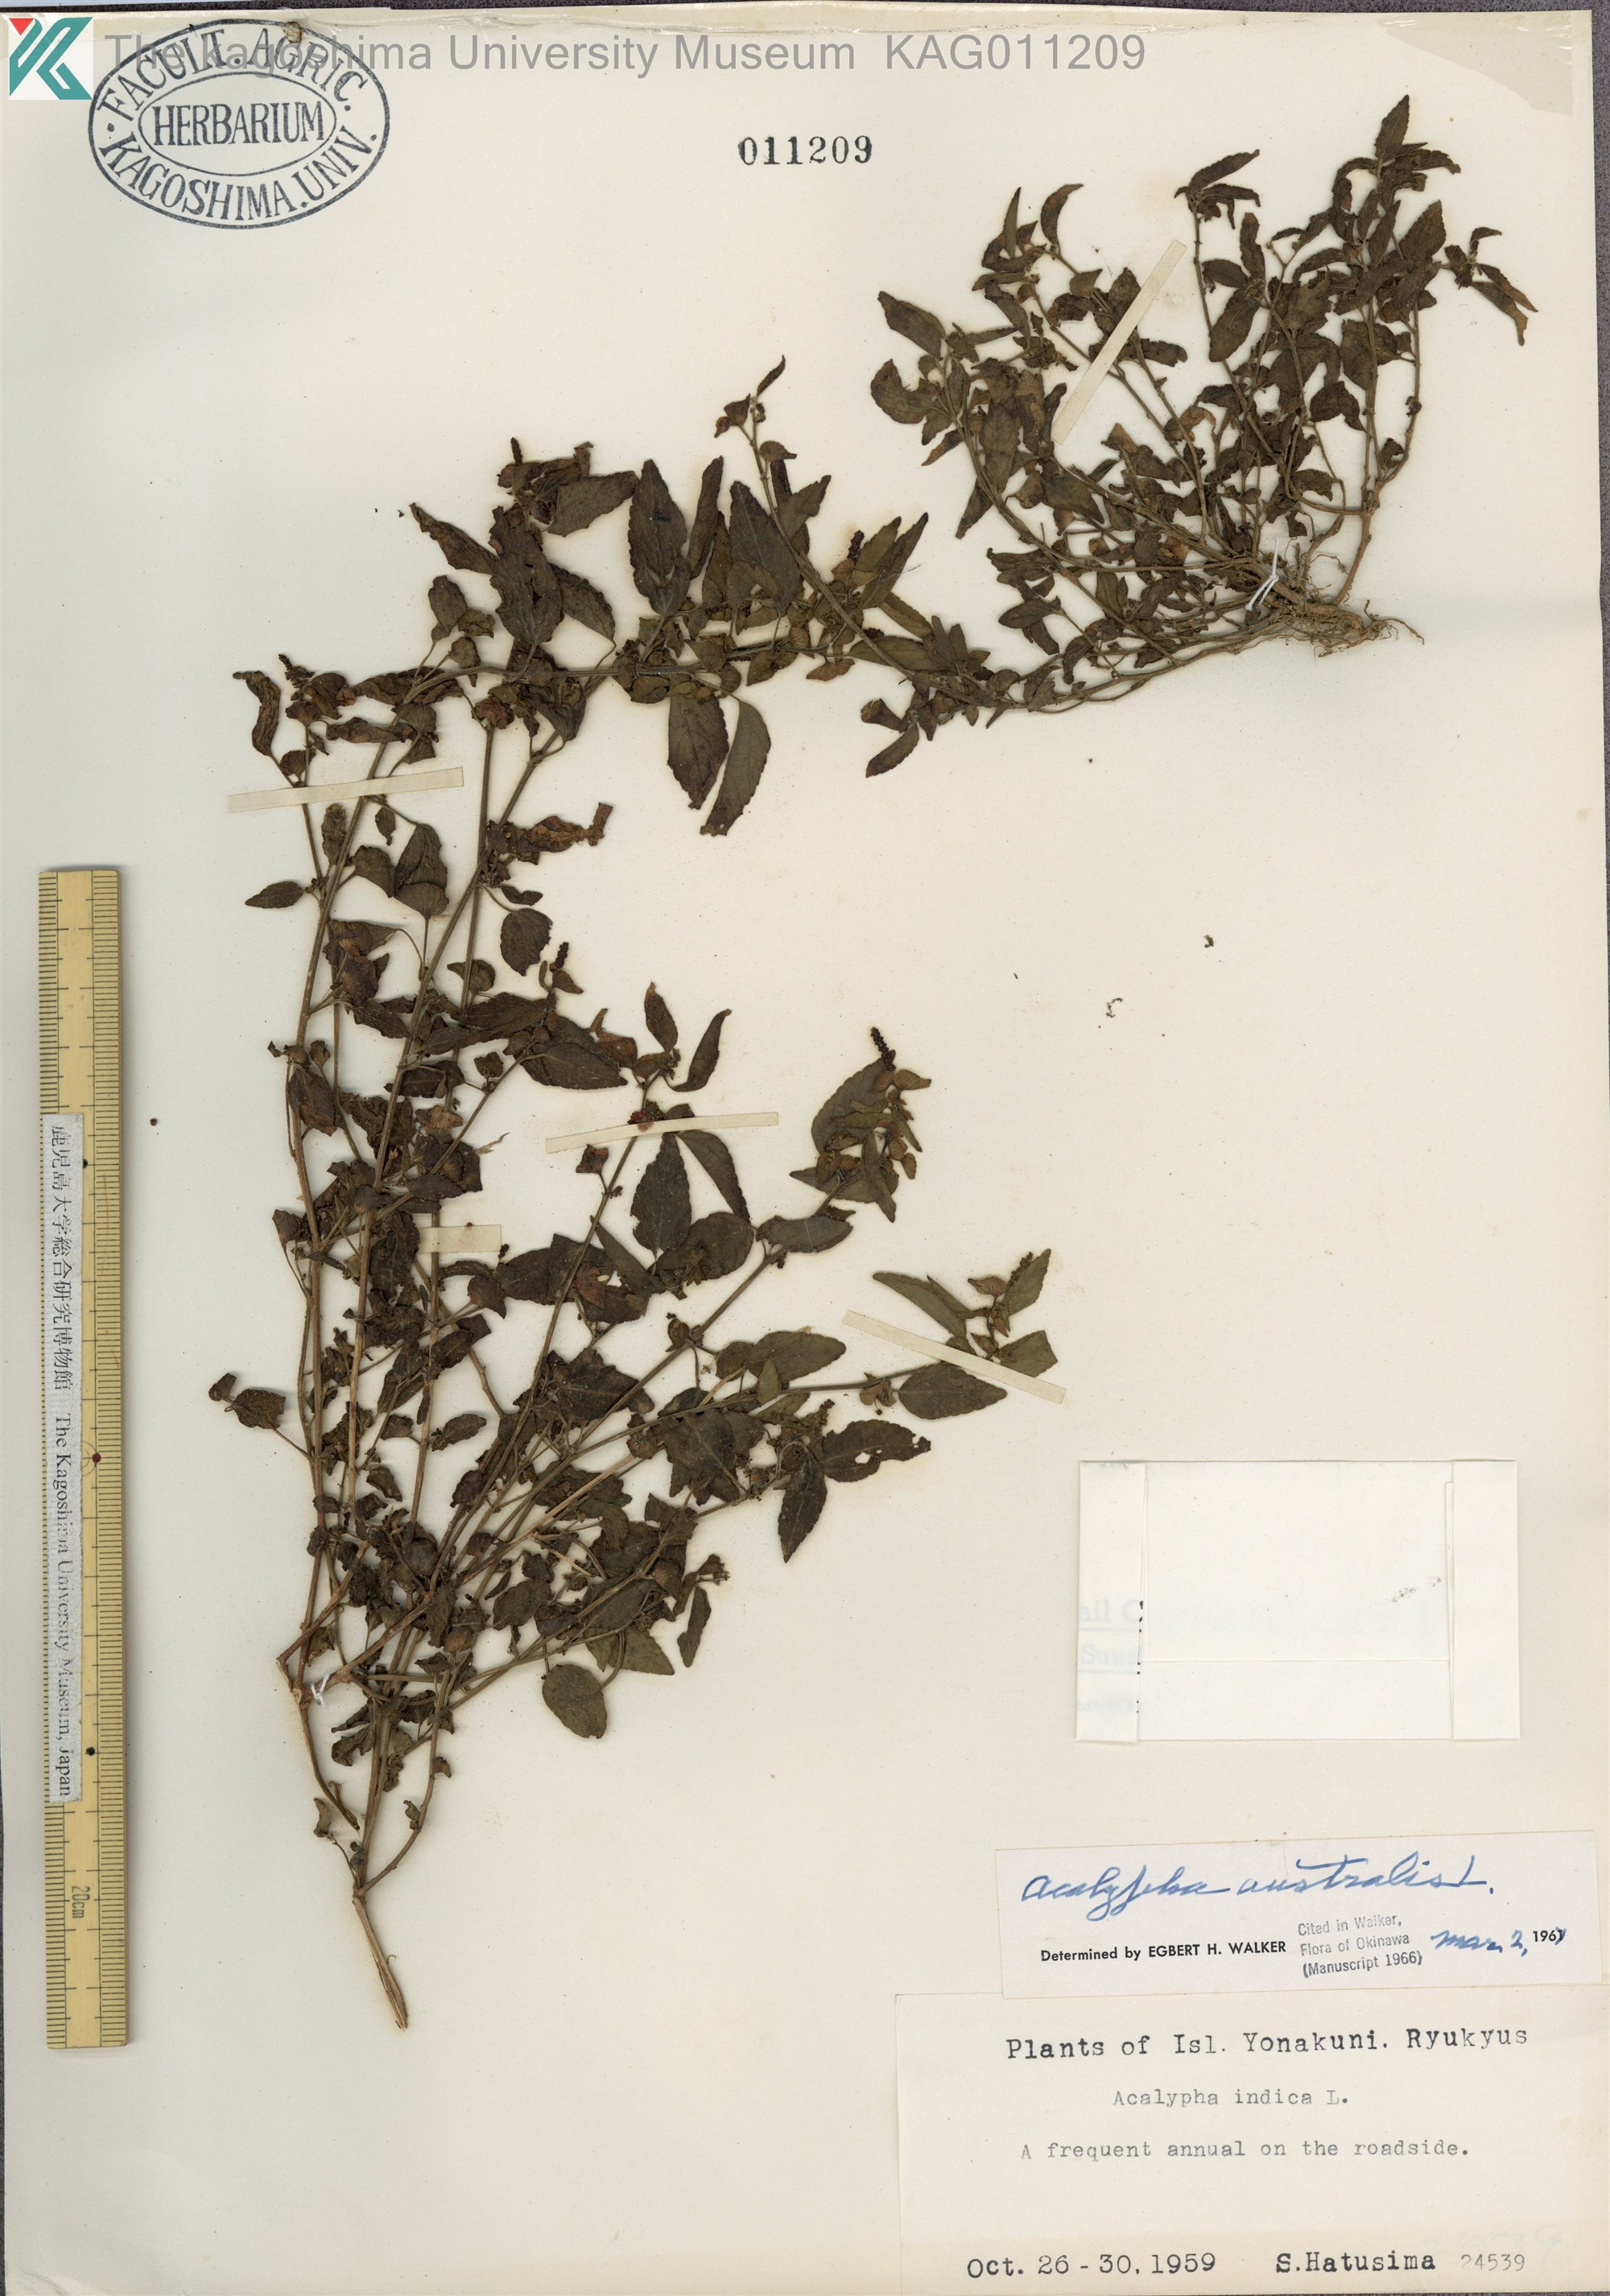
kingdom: Plantae
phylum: Tracheophyta
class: Magnoliopsida
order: Malpighiales
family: Euphorbiaceae
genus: Acalypha
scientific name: Acalypha australis
